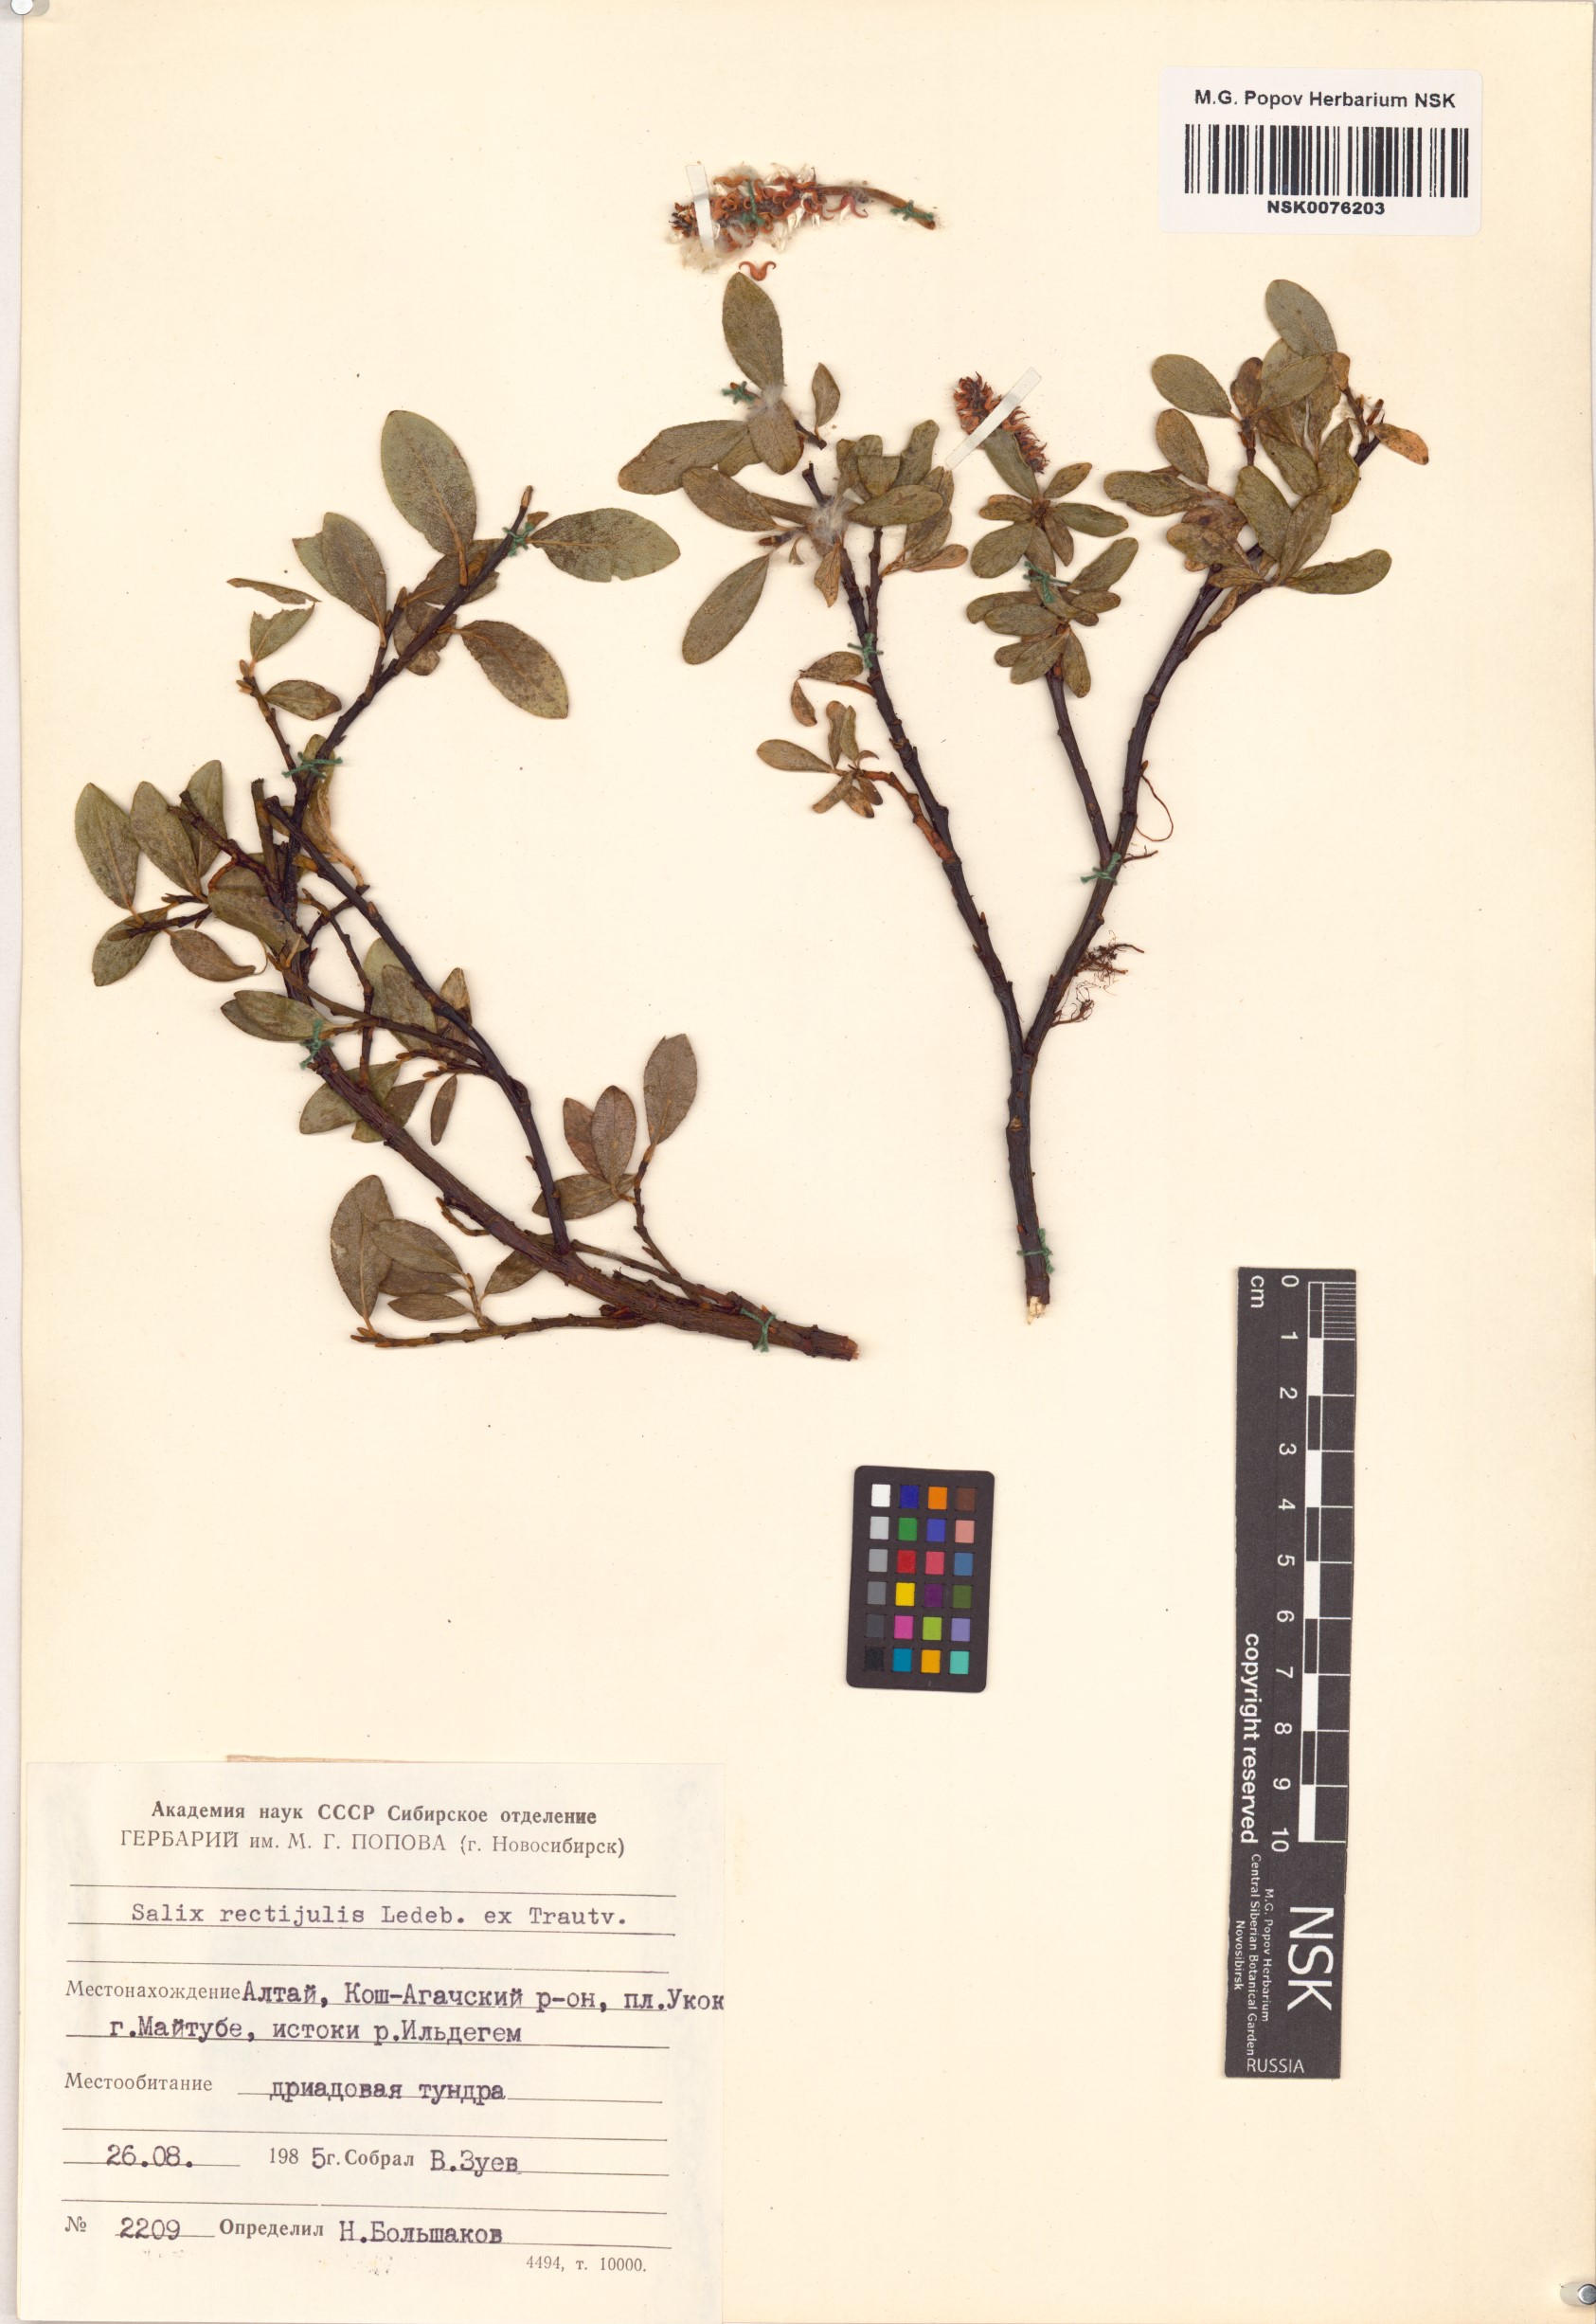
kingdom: Plantae
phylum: Tracheophyta
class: Magnoliopsida
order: Malpighiales
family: Salicaceae
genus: Salix
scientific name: Salix rectijulis
